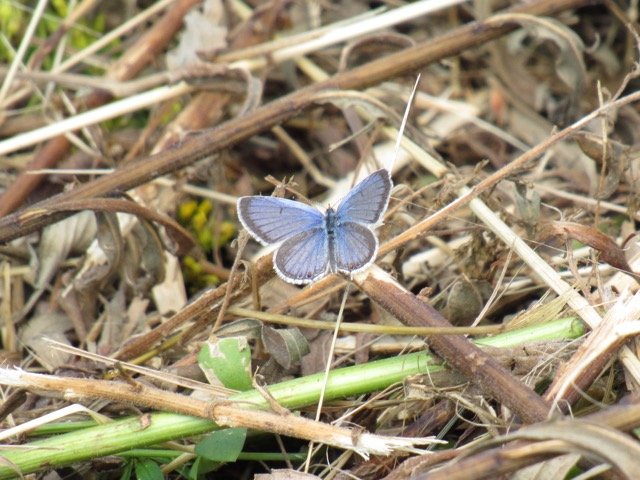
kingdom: Animalia
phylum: Arthropoda
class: Insecta
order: Lepidoptera
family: Lycaenidae
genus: Elkalyce
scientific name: Elkalyce comyntas
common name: Eastern Tailed-Blue
